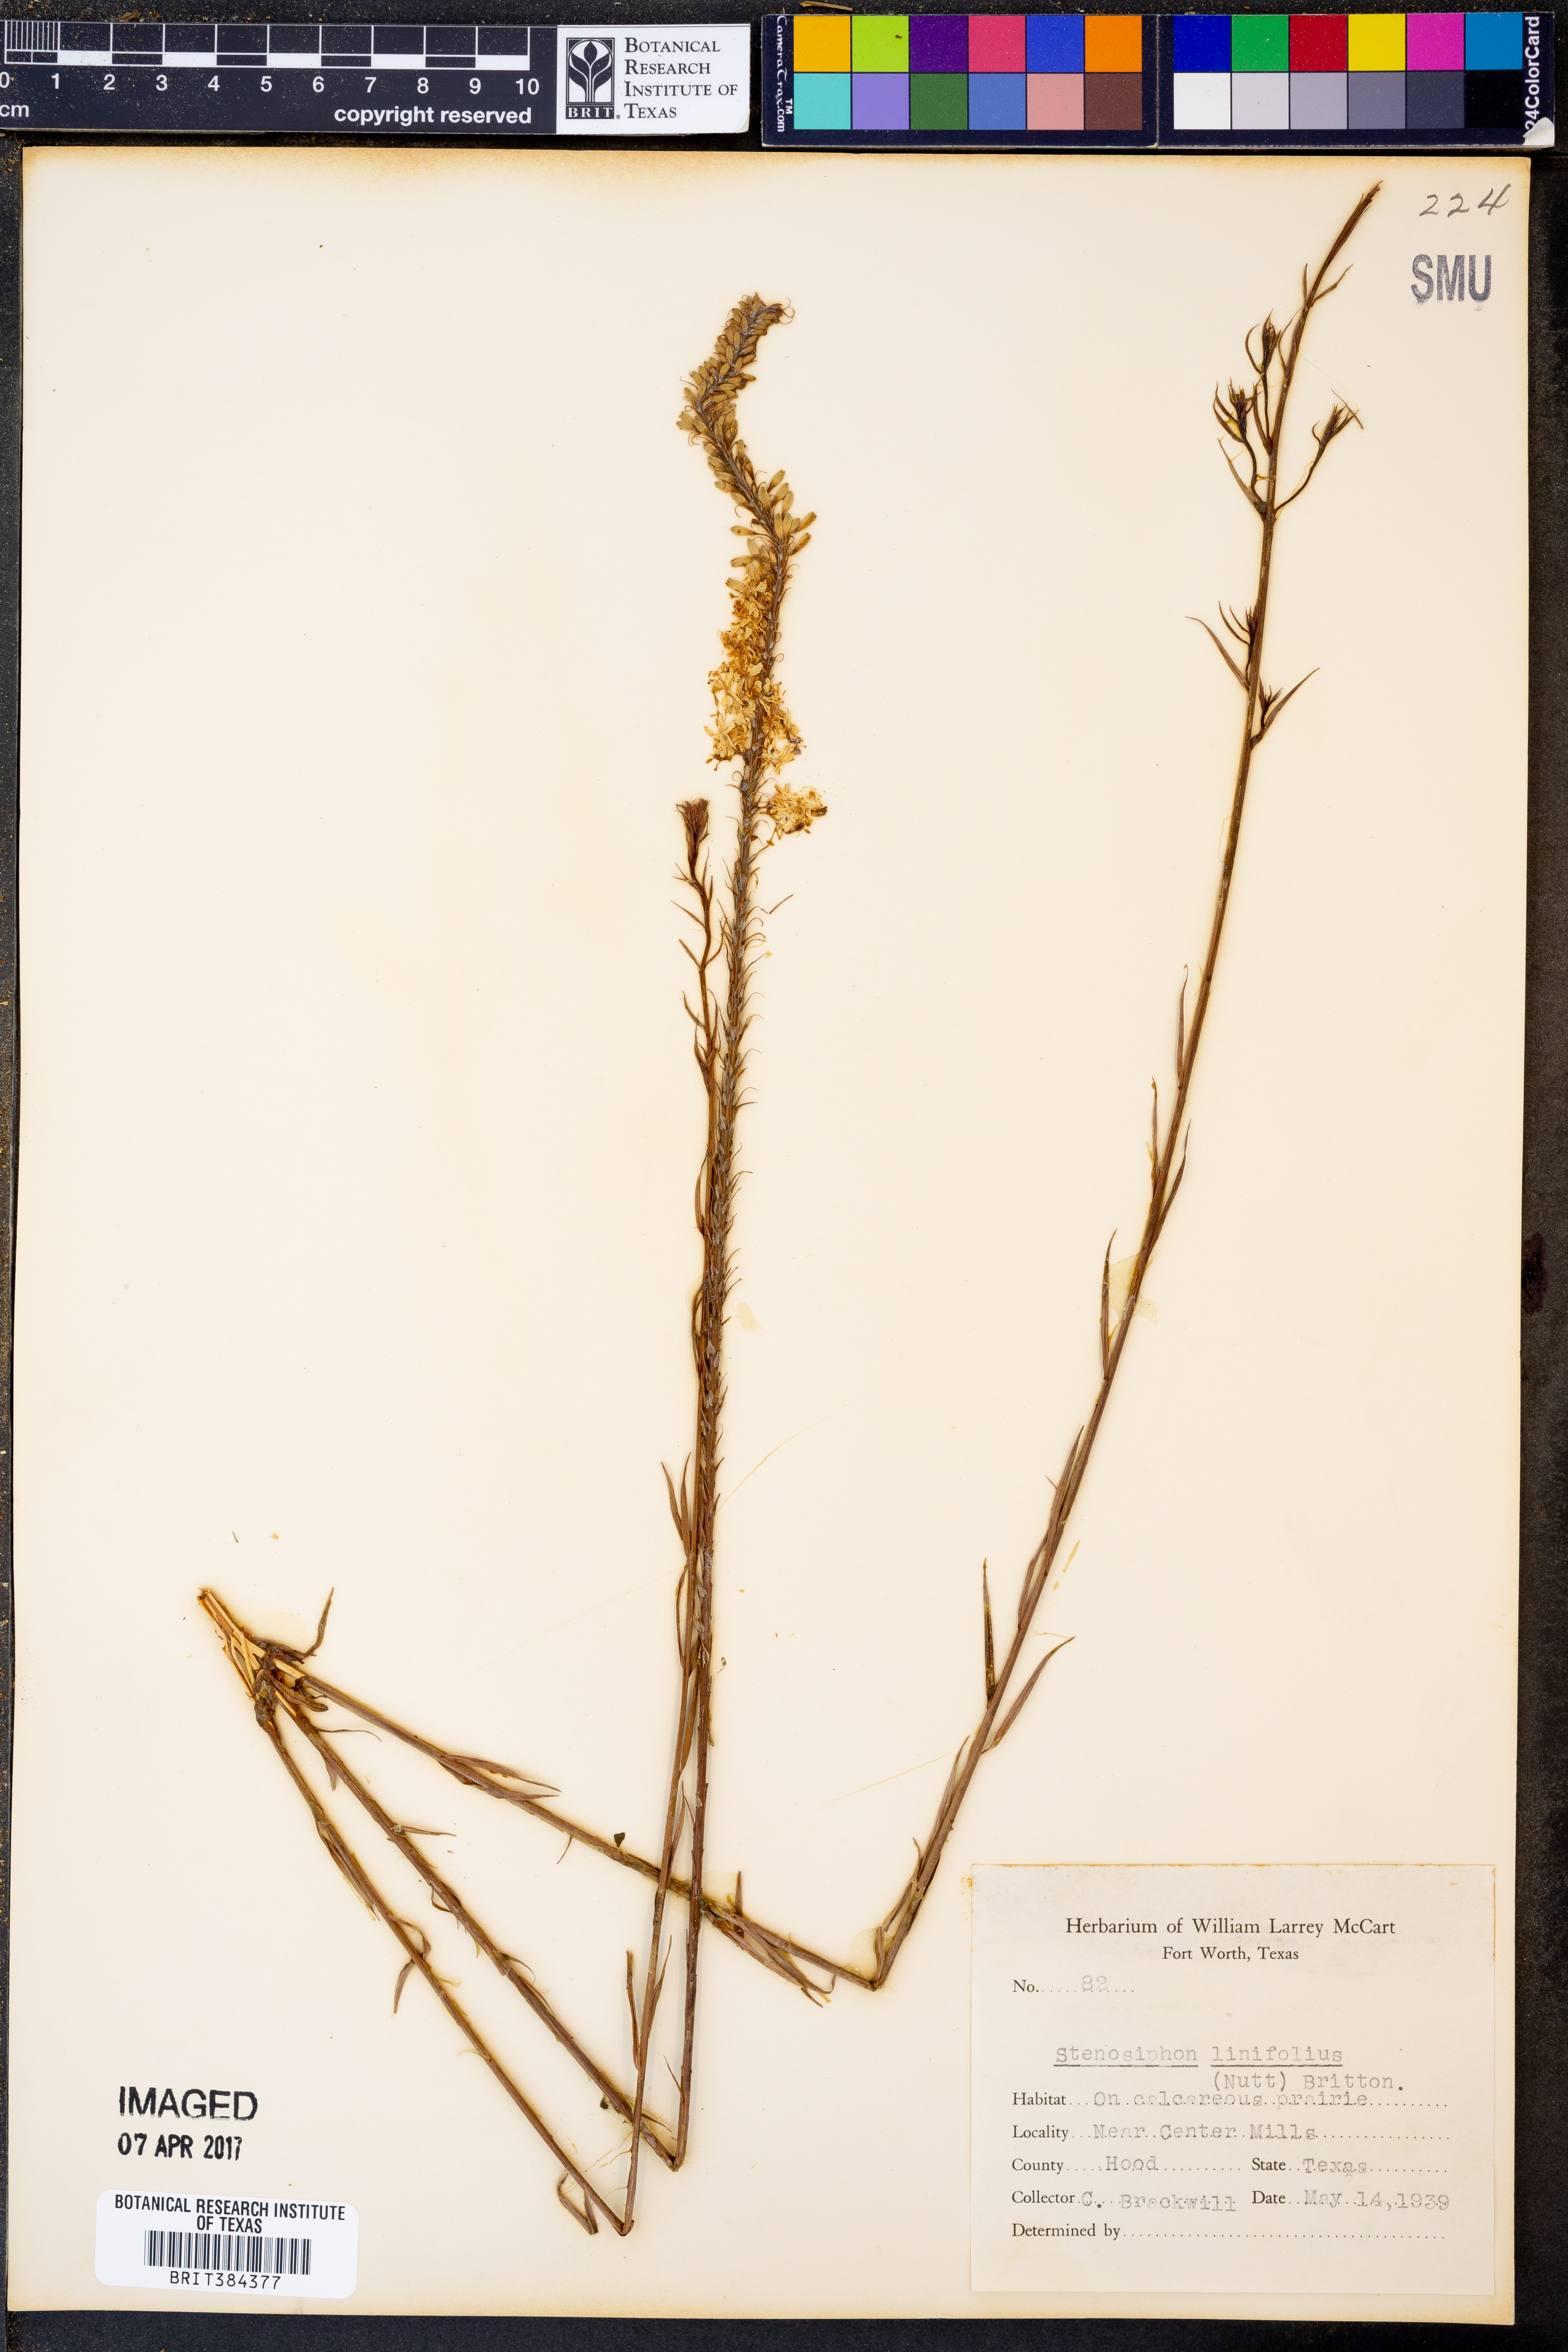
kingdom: Plantae
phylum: Tracheophyta
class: Magnoliopsida
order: Myrtales
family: Onagraceae
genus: Oenothera
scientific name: Oenothera glaucifolia
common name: False gaura
